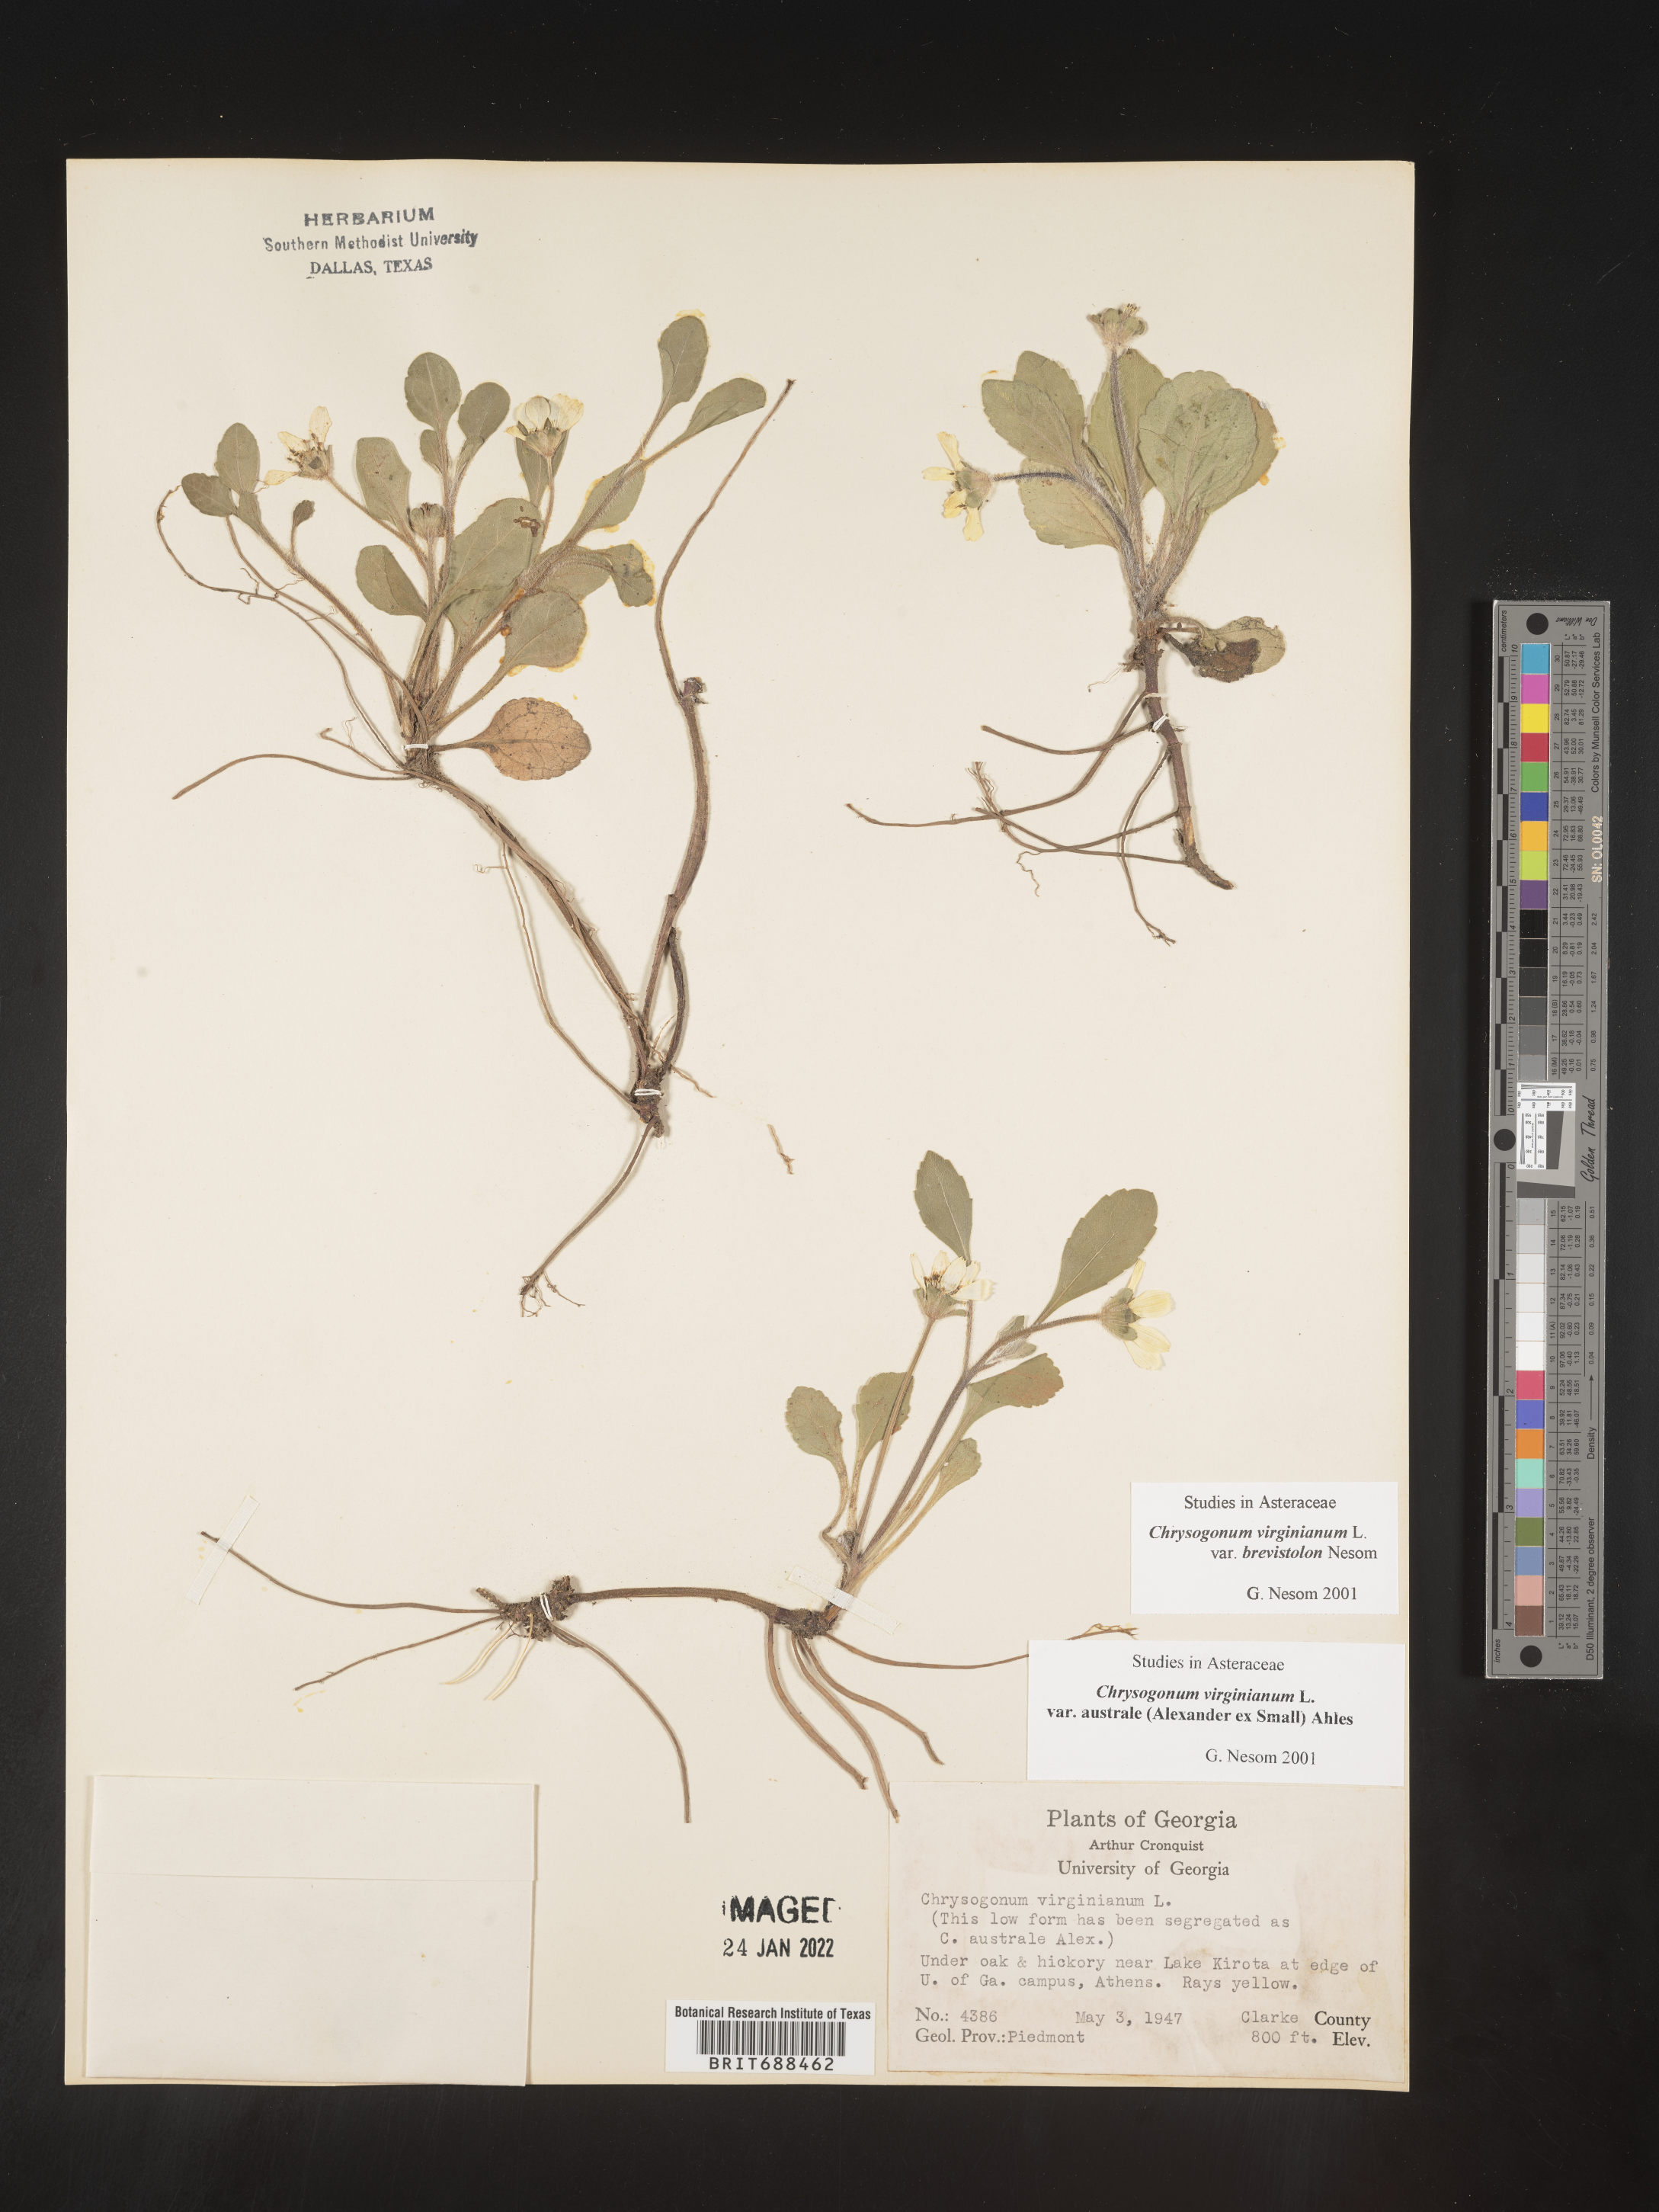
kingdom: Plantae
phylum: Tracheophyta
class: Magnoliopsida
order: Asterales
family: Asteraceae
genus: Chrysogonum
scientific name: Chrysogonum virginianum
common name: Golden-knee
